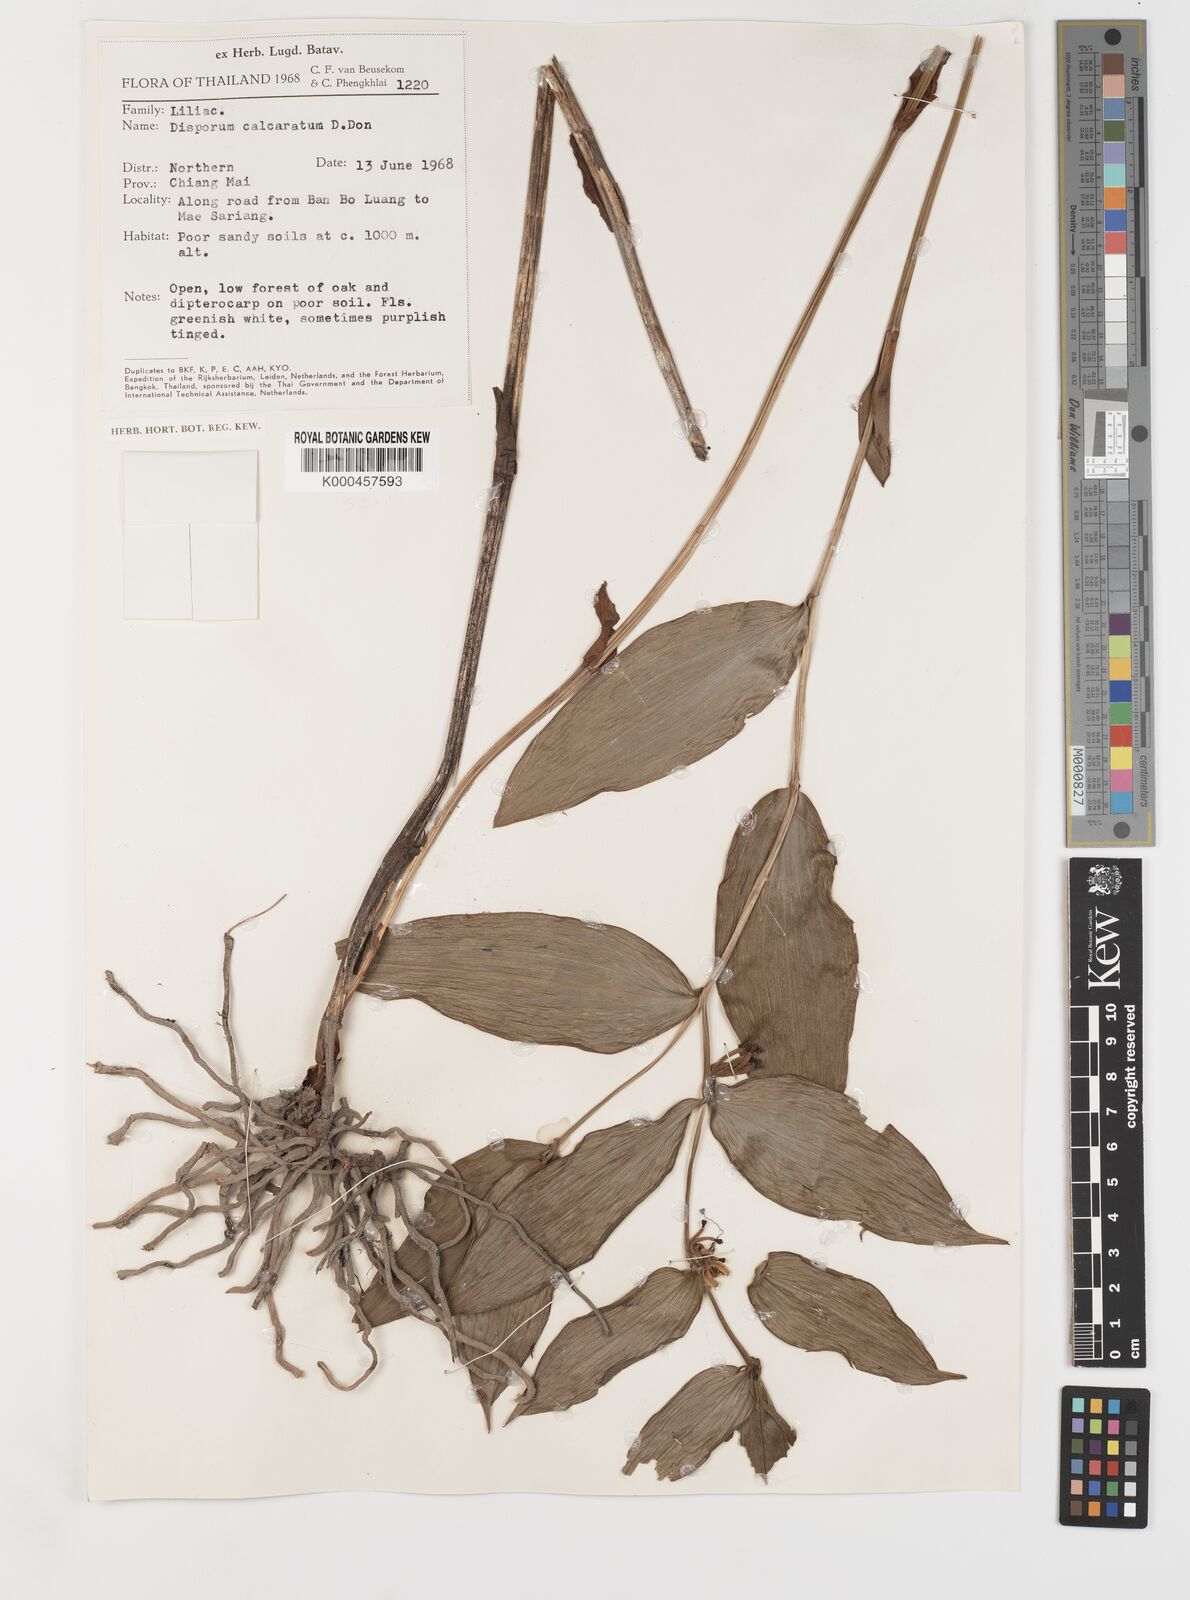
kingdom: Plantae
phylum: Tracheophyta
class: Liliopsida
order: Liliales
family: Colchicaceae
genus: Disporum
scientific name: Disporum calcaratum
